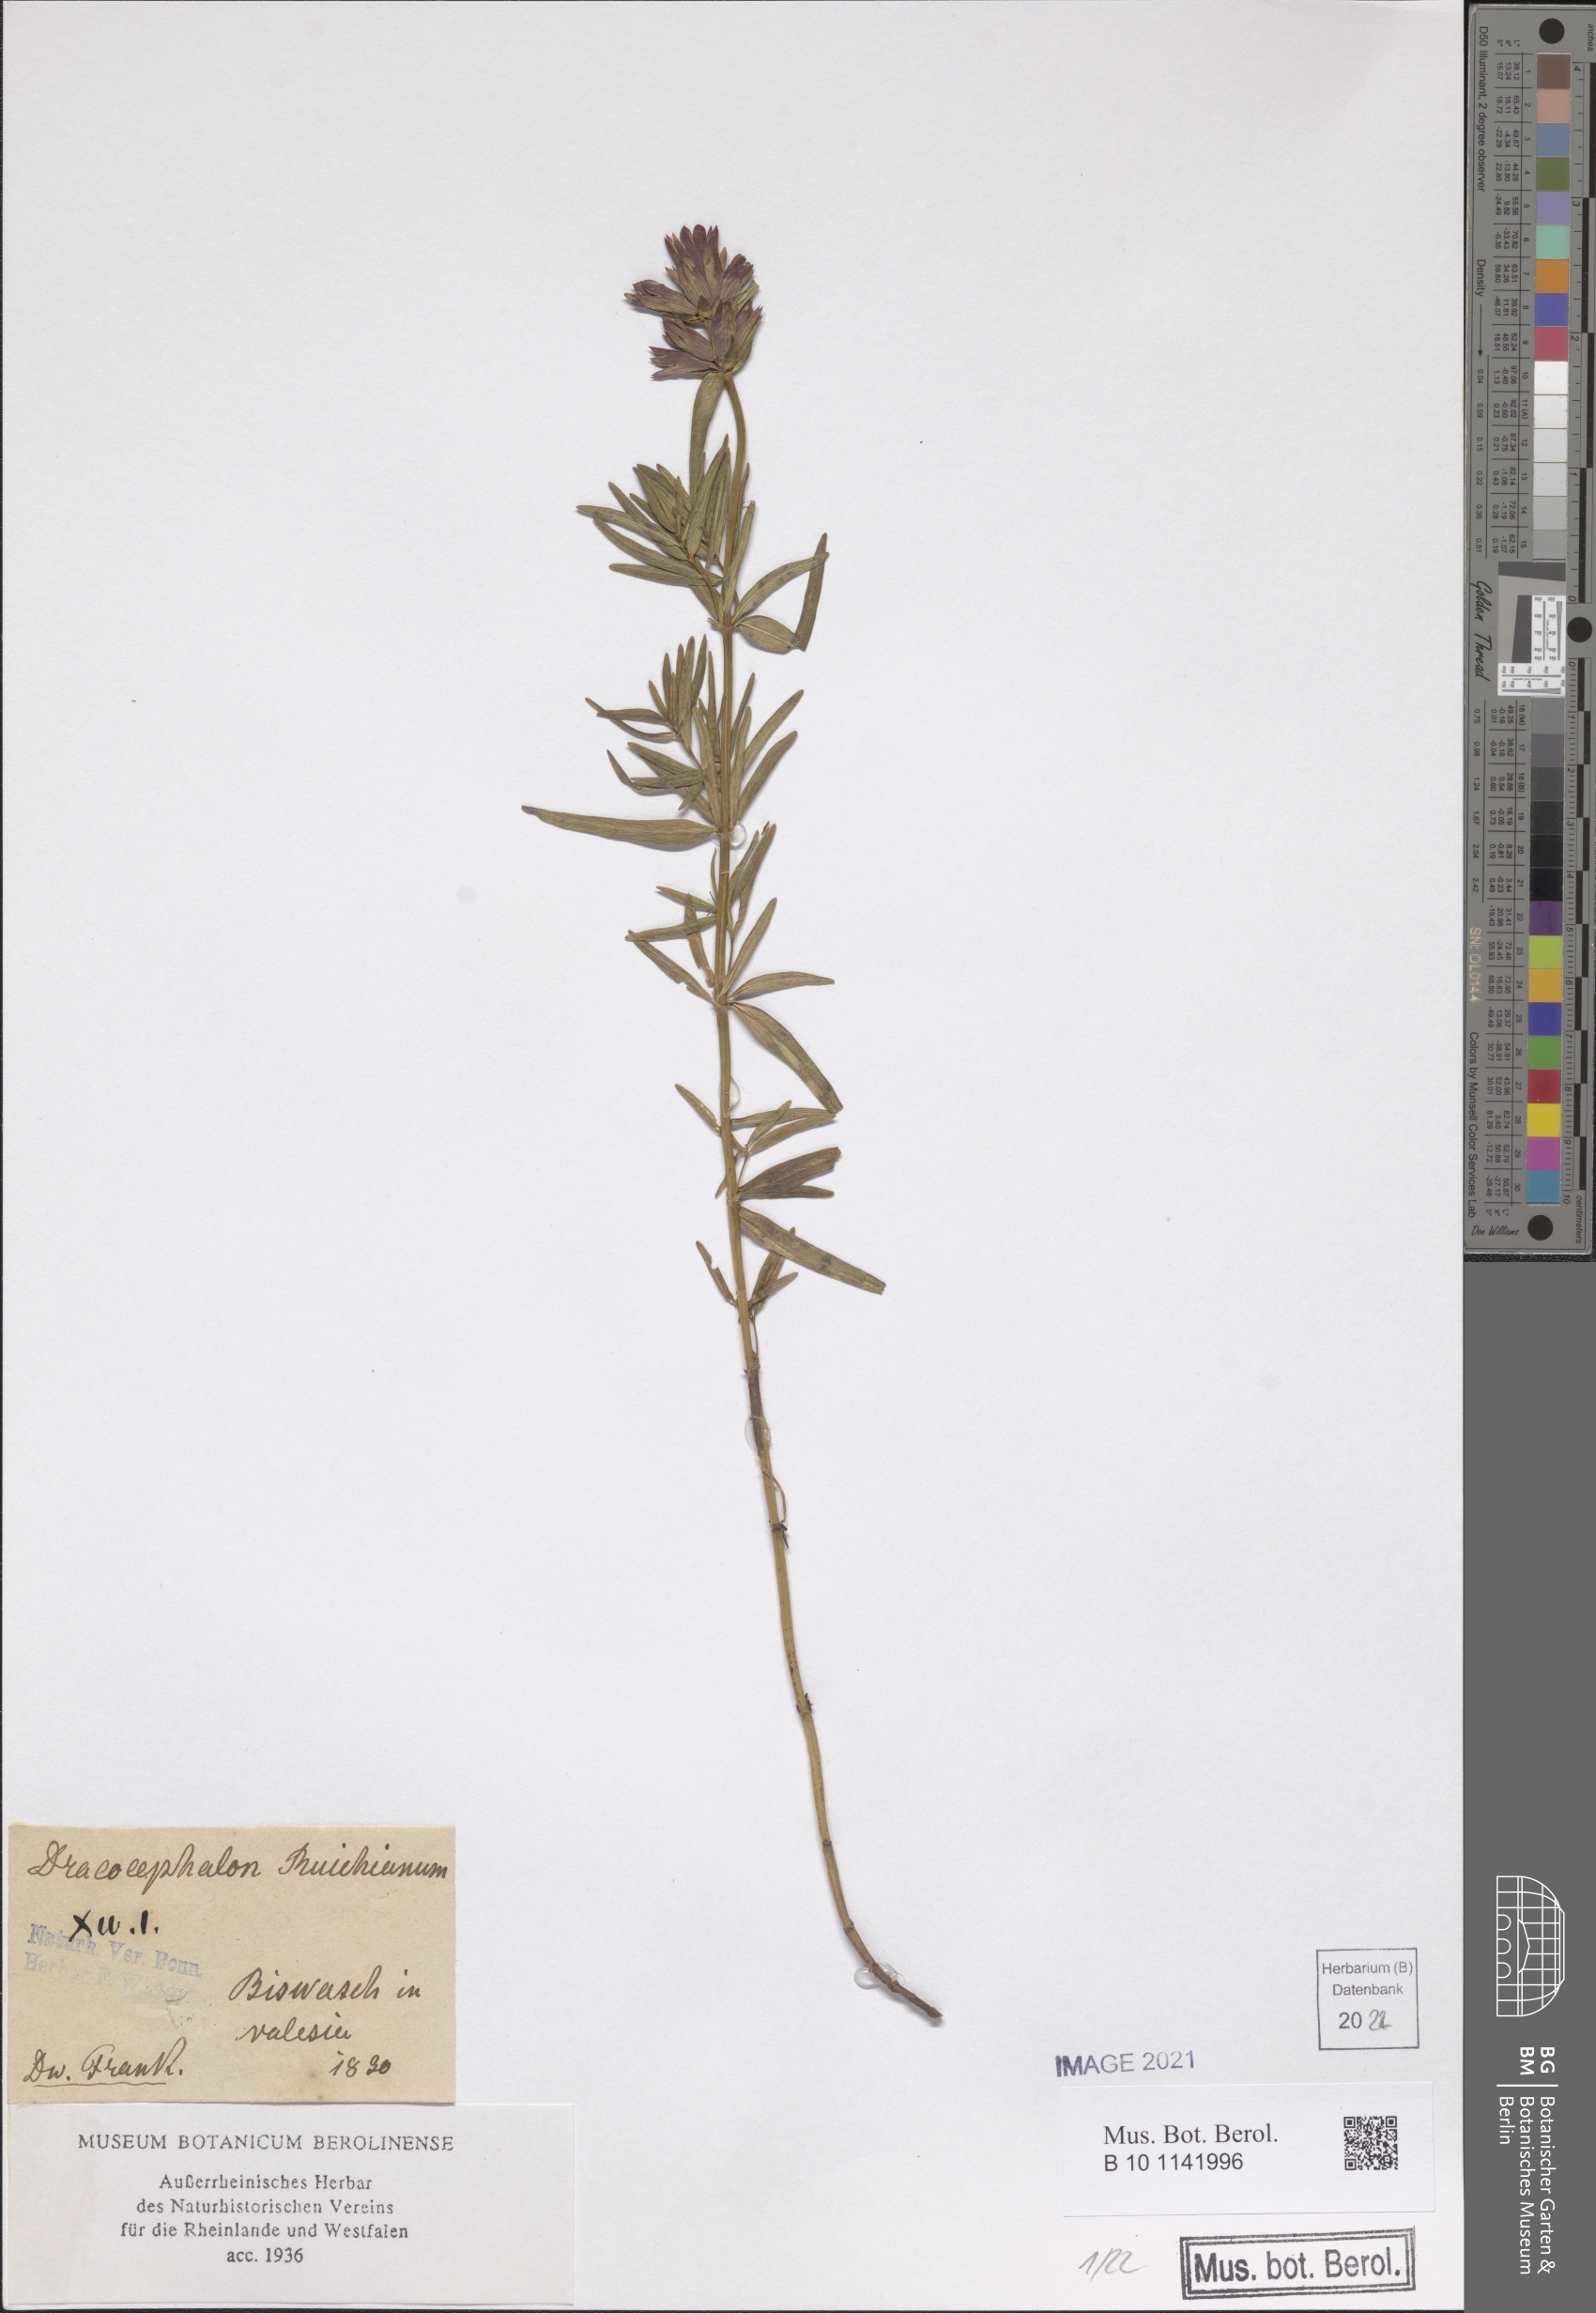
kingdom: Plantae
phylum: Tracheophyta
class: Magnoliopsida
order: Lamiales
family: Lamiaceae
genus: Dracocephalum
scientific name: Dracocephalum ruyschiana
